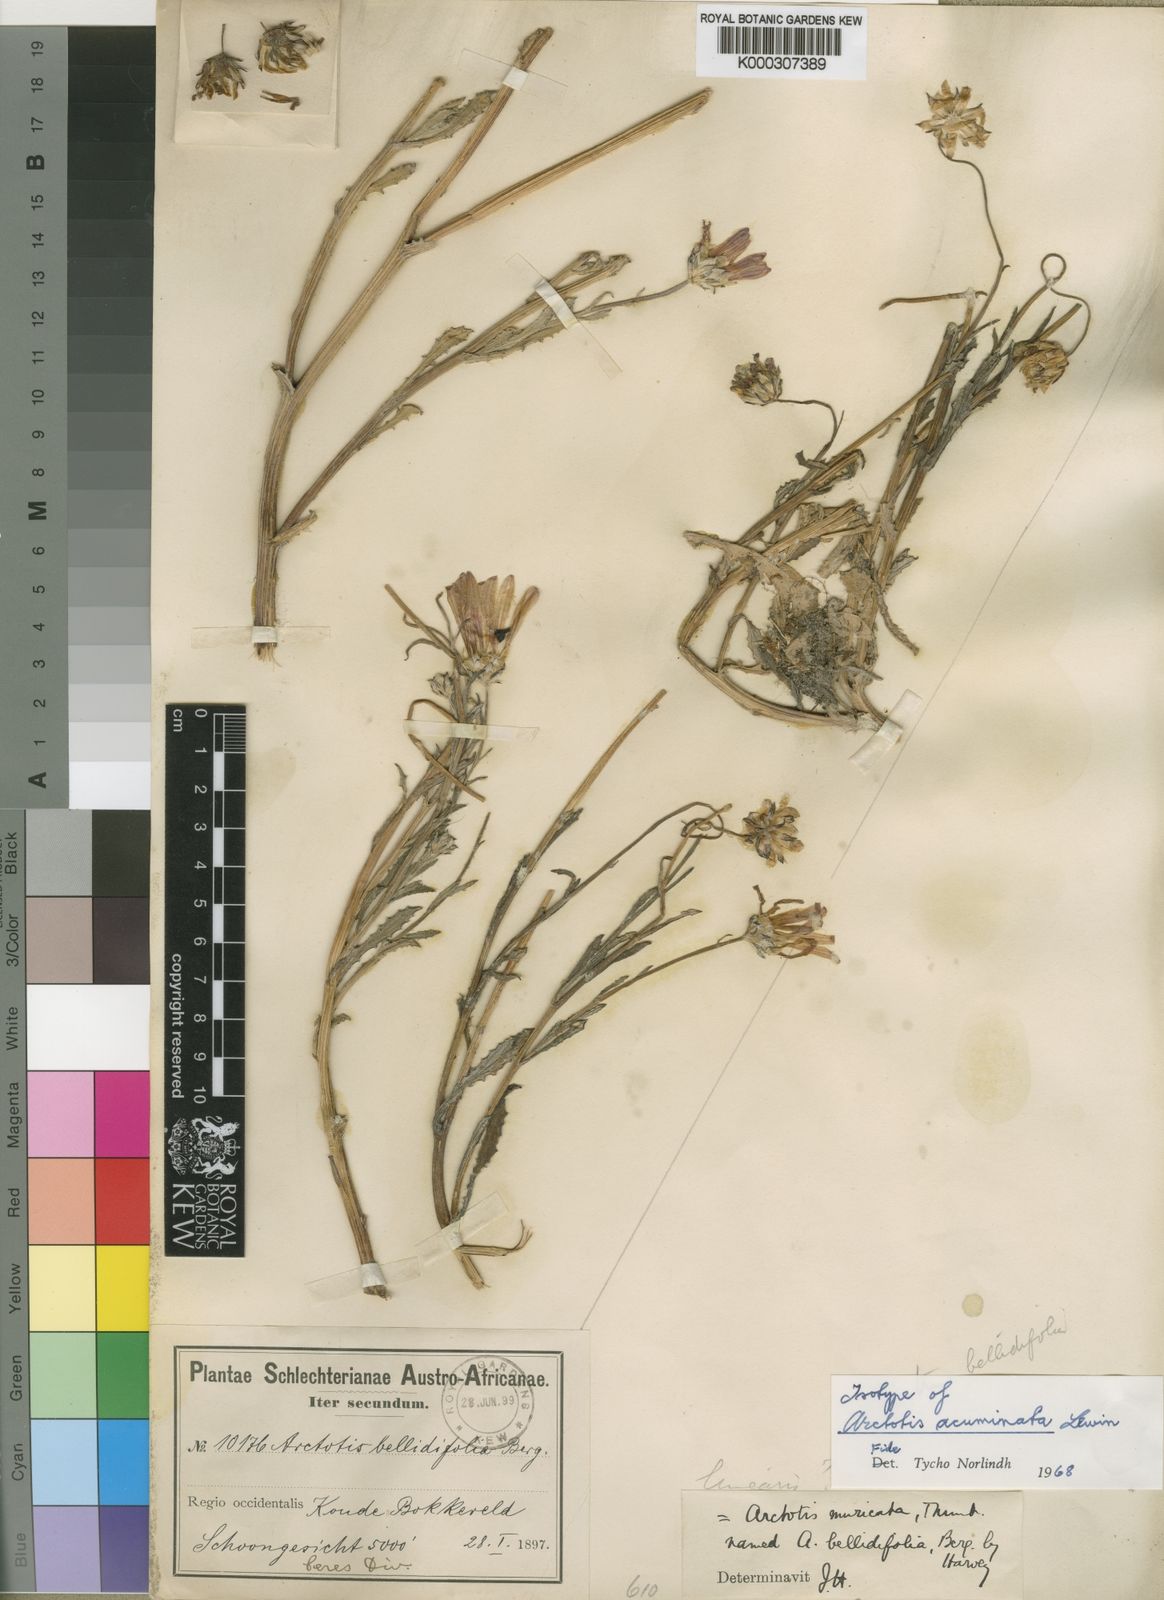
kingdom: Plantae
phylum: Tracheophyta
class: Magnoliopsida
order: Asterales
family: Asteraceae
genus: Arctotis
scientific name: Arctotis acuminata
